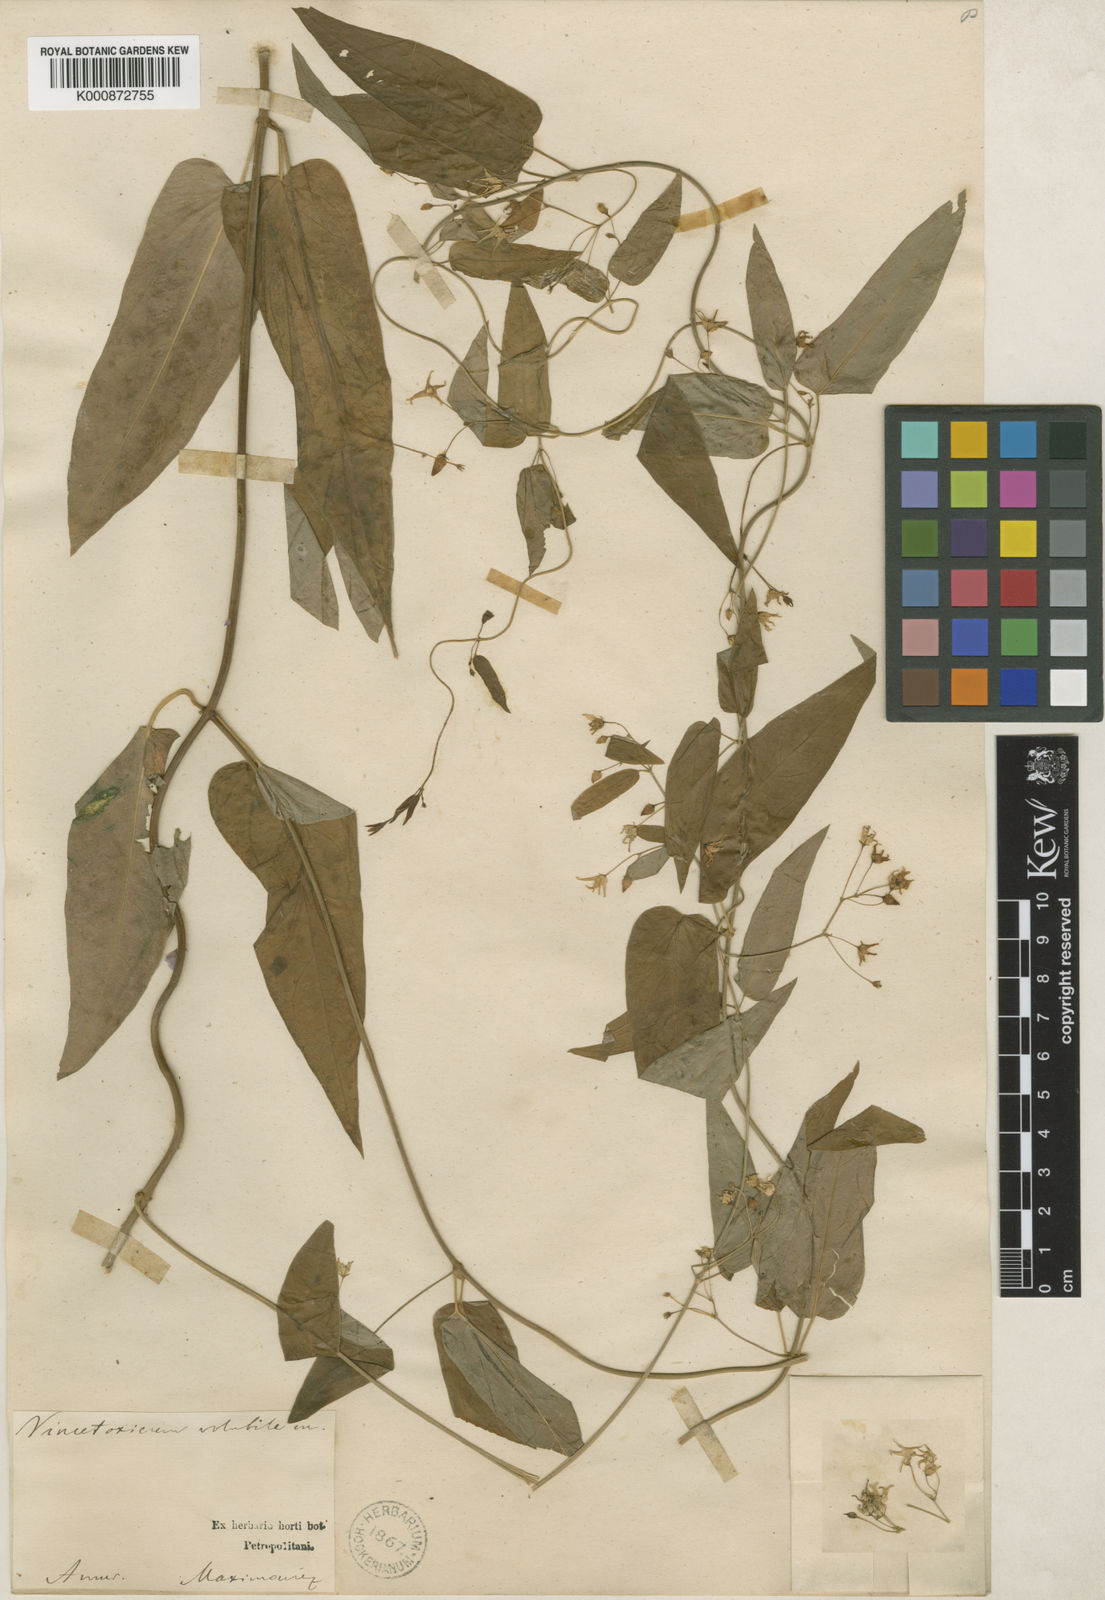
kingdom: Plantae
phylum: Tracheophyta
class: Magnoliopsida
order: Gentianales
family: Apocynaceae
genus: Vincetoxicum
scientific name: Vincetoxicum volubile
